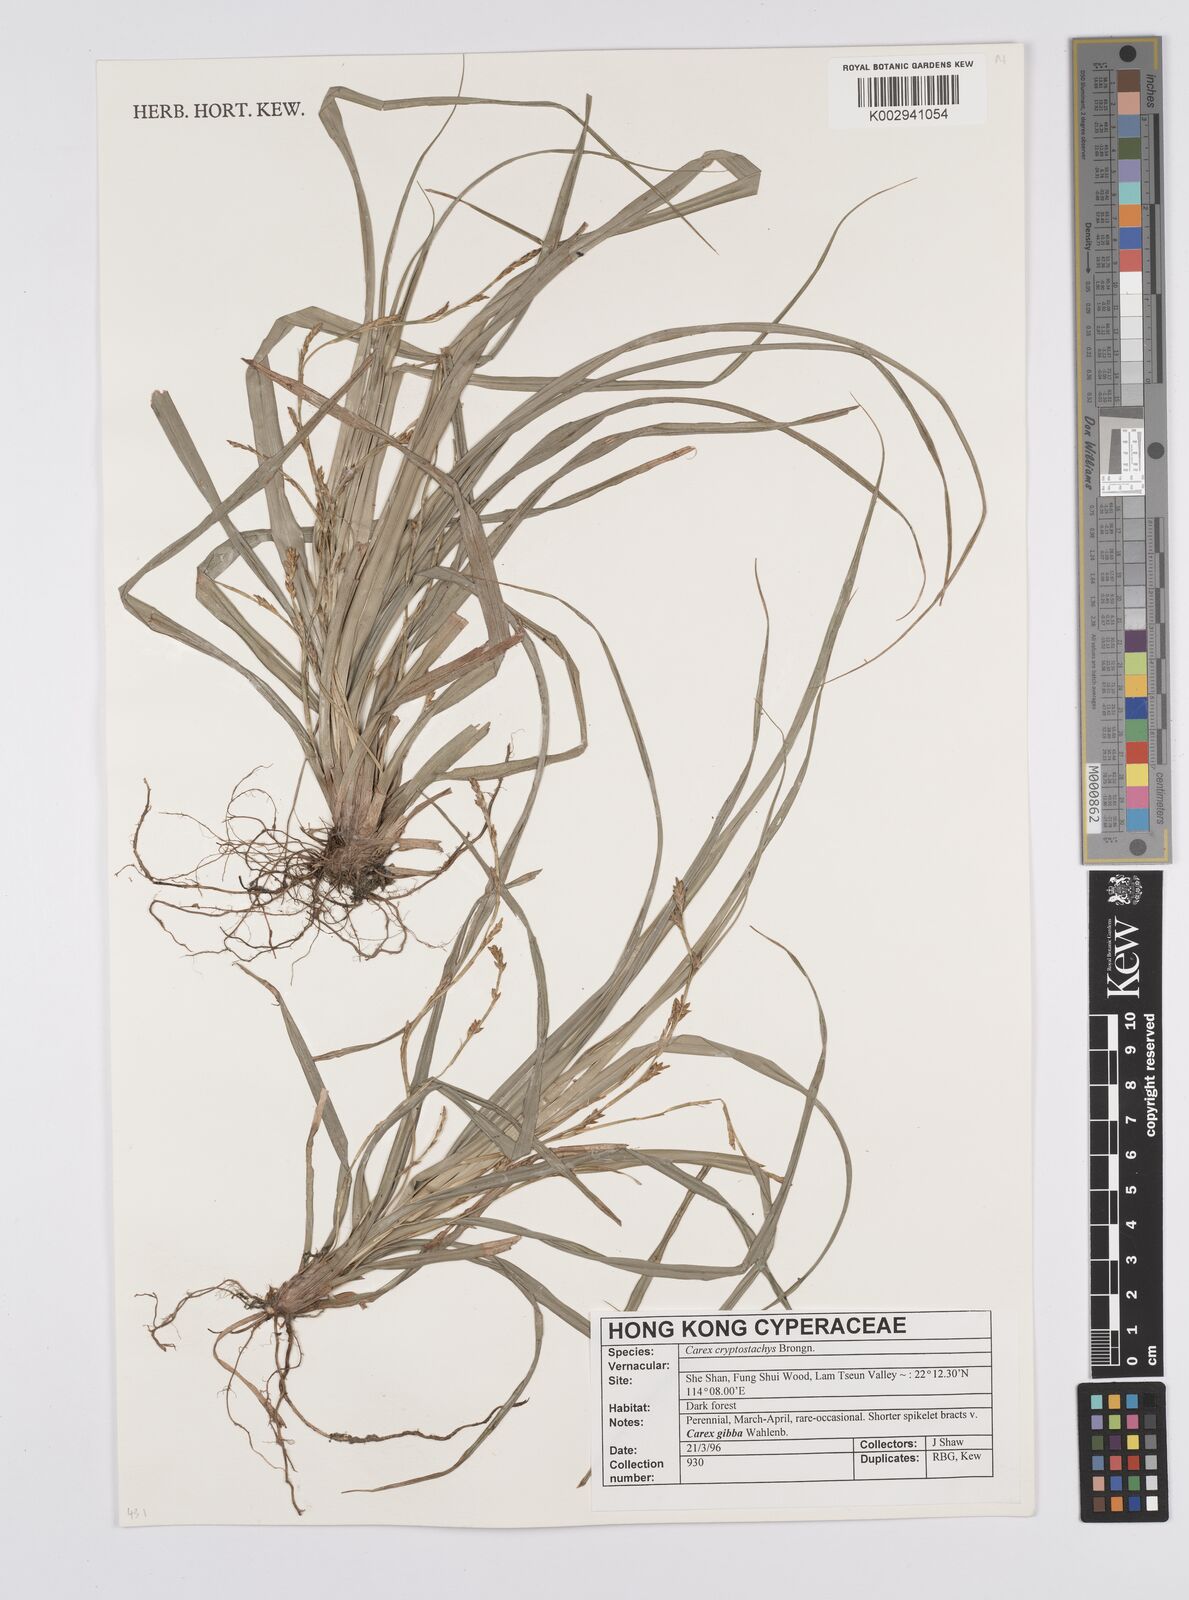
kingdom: Plantae
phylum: Tracheophyta
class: Liliopsida
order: Poales
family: Cyperaceae
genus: Carex
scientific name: Carex cryptostachys
